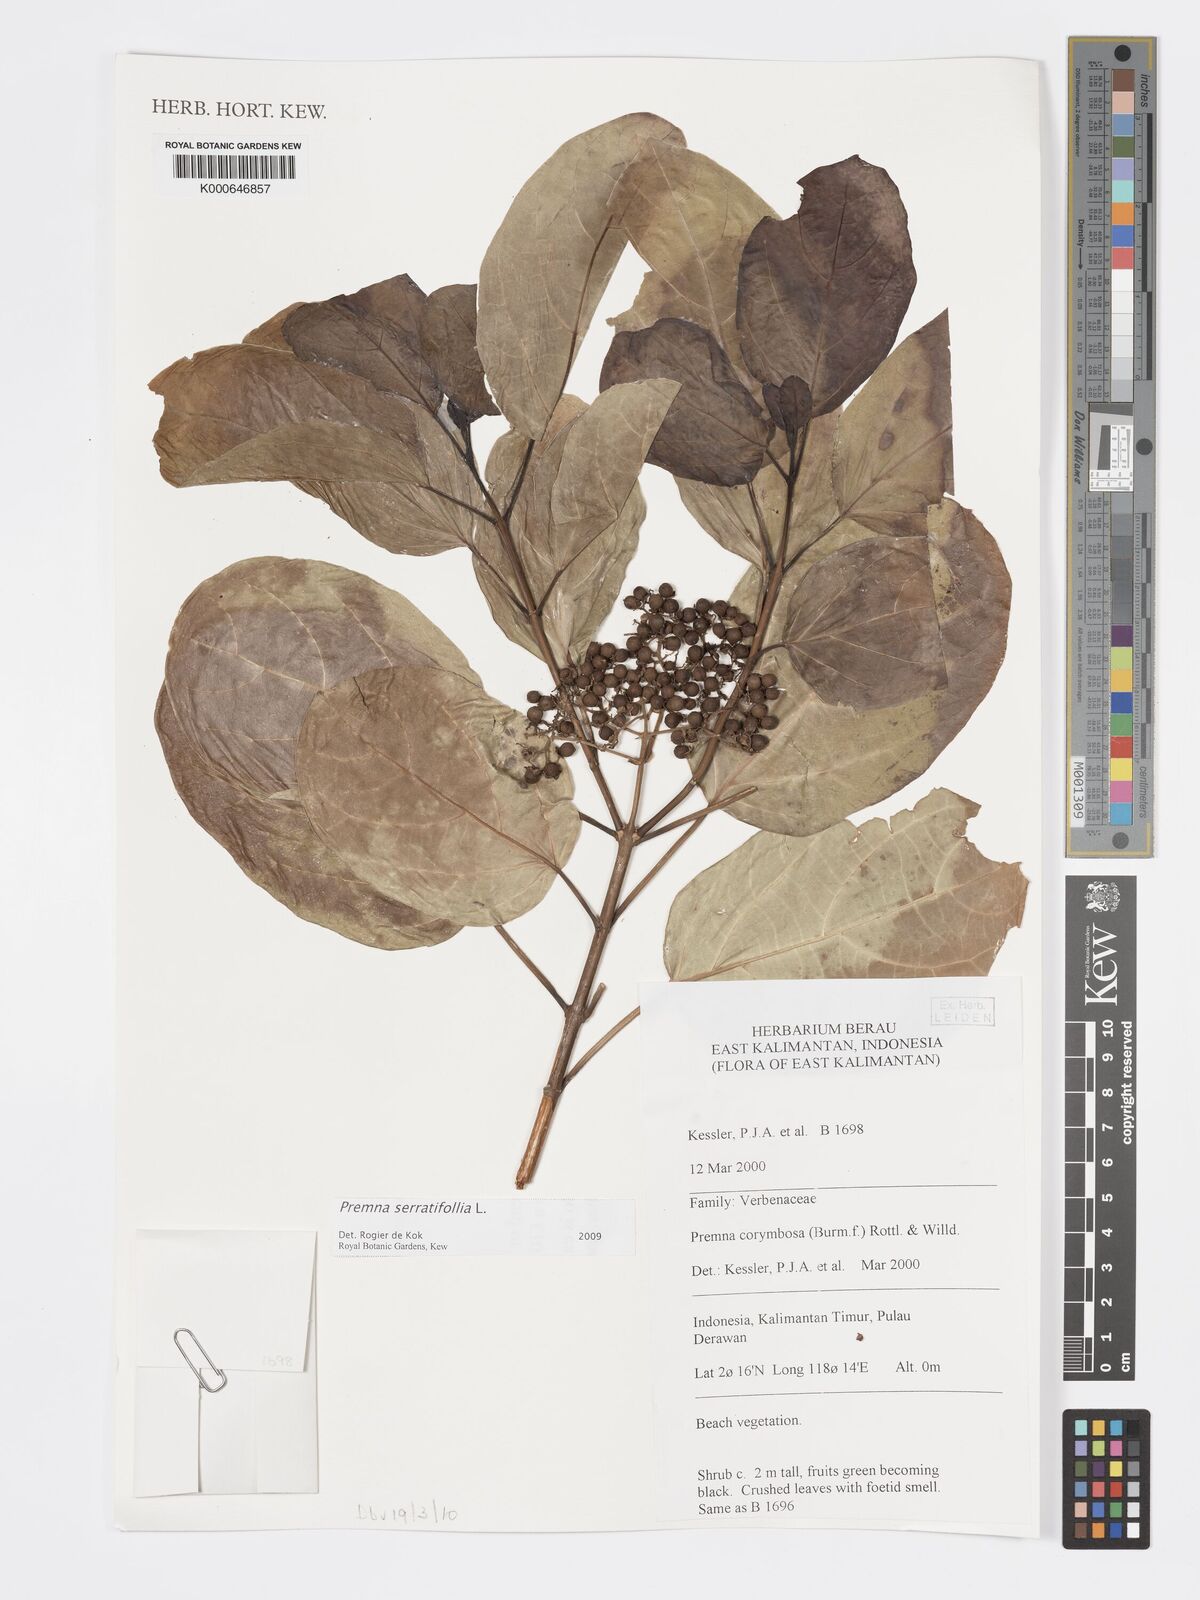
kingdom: Plantae
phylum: Tracheophyta
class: Magnoliopsida
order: Lamiales
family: Lamiaceae
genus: Premna
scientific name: Premna serratifolia
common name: Bastard guelder
